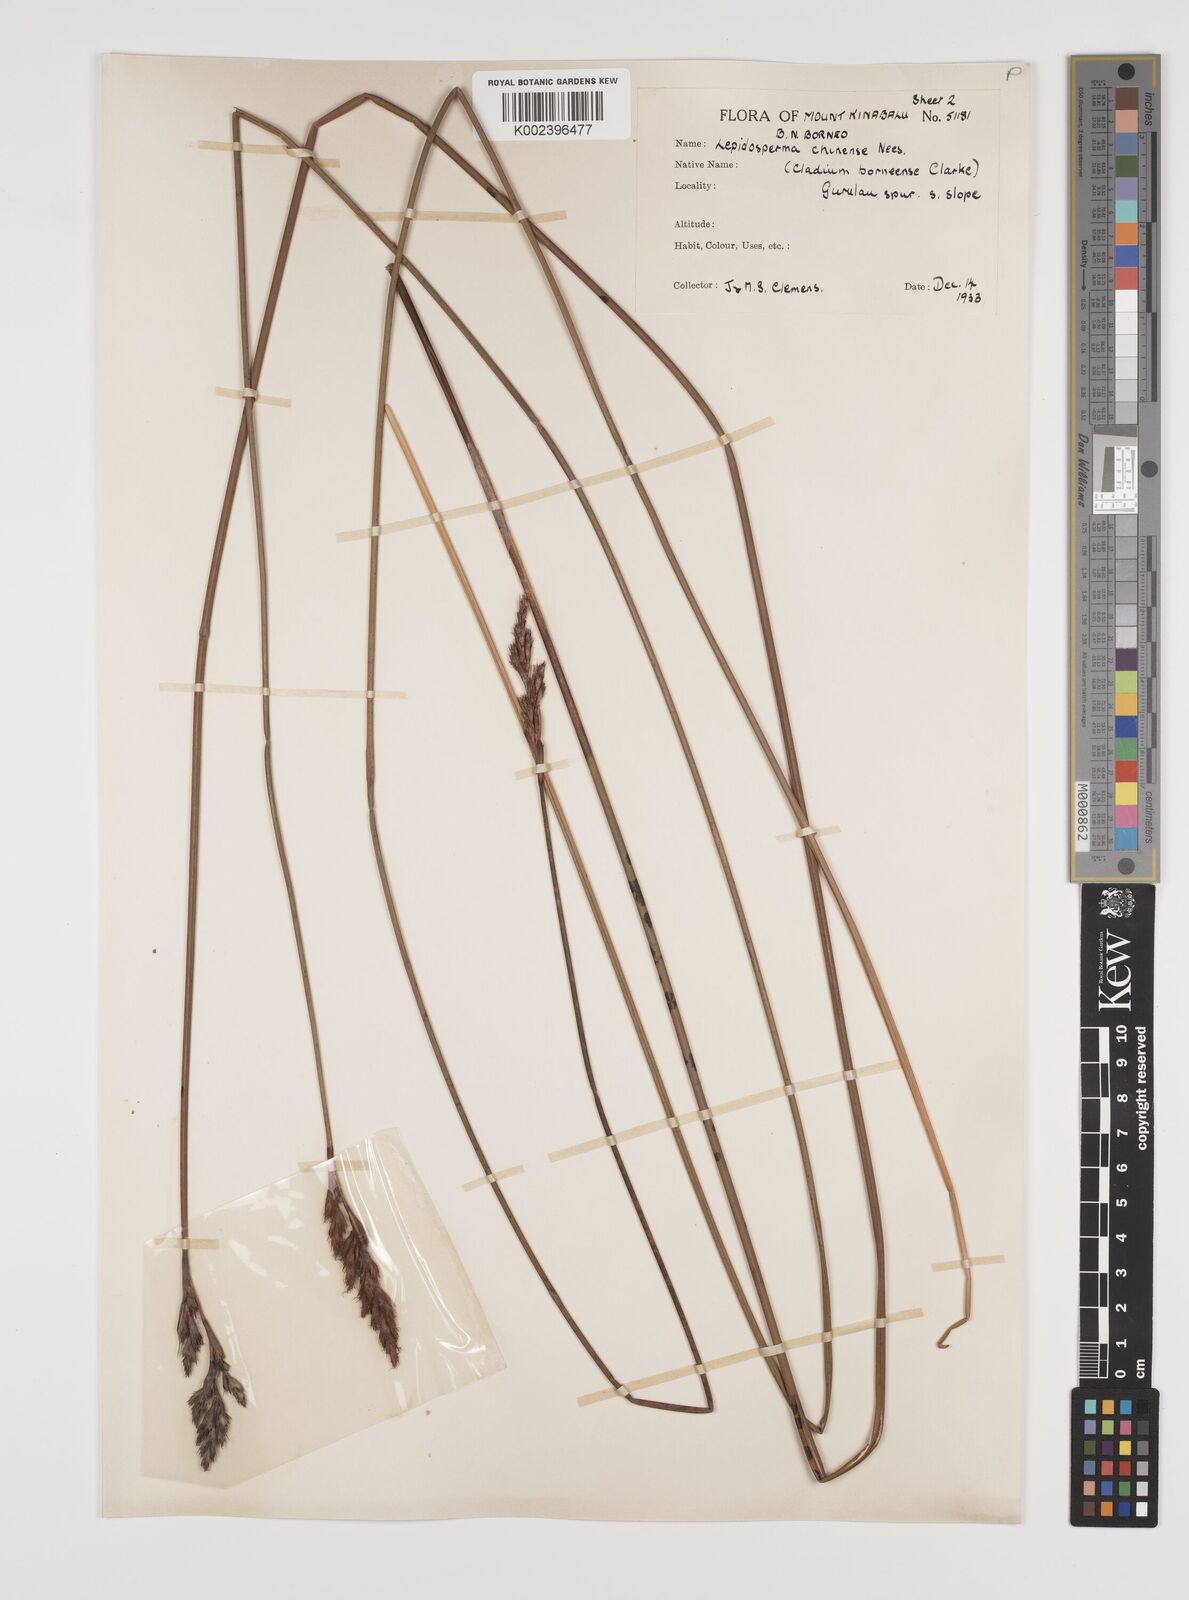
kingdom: Plantae
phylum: Tracheophyta
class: Liliopsida
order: Poales
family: Cyperaceae
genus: Lepidosperma
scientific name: Lepidosperma chinense
